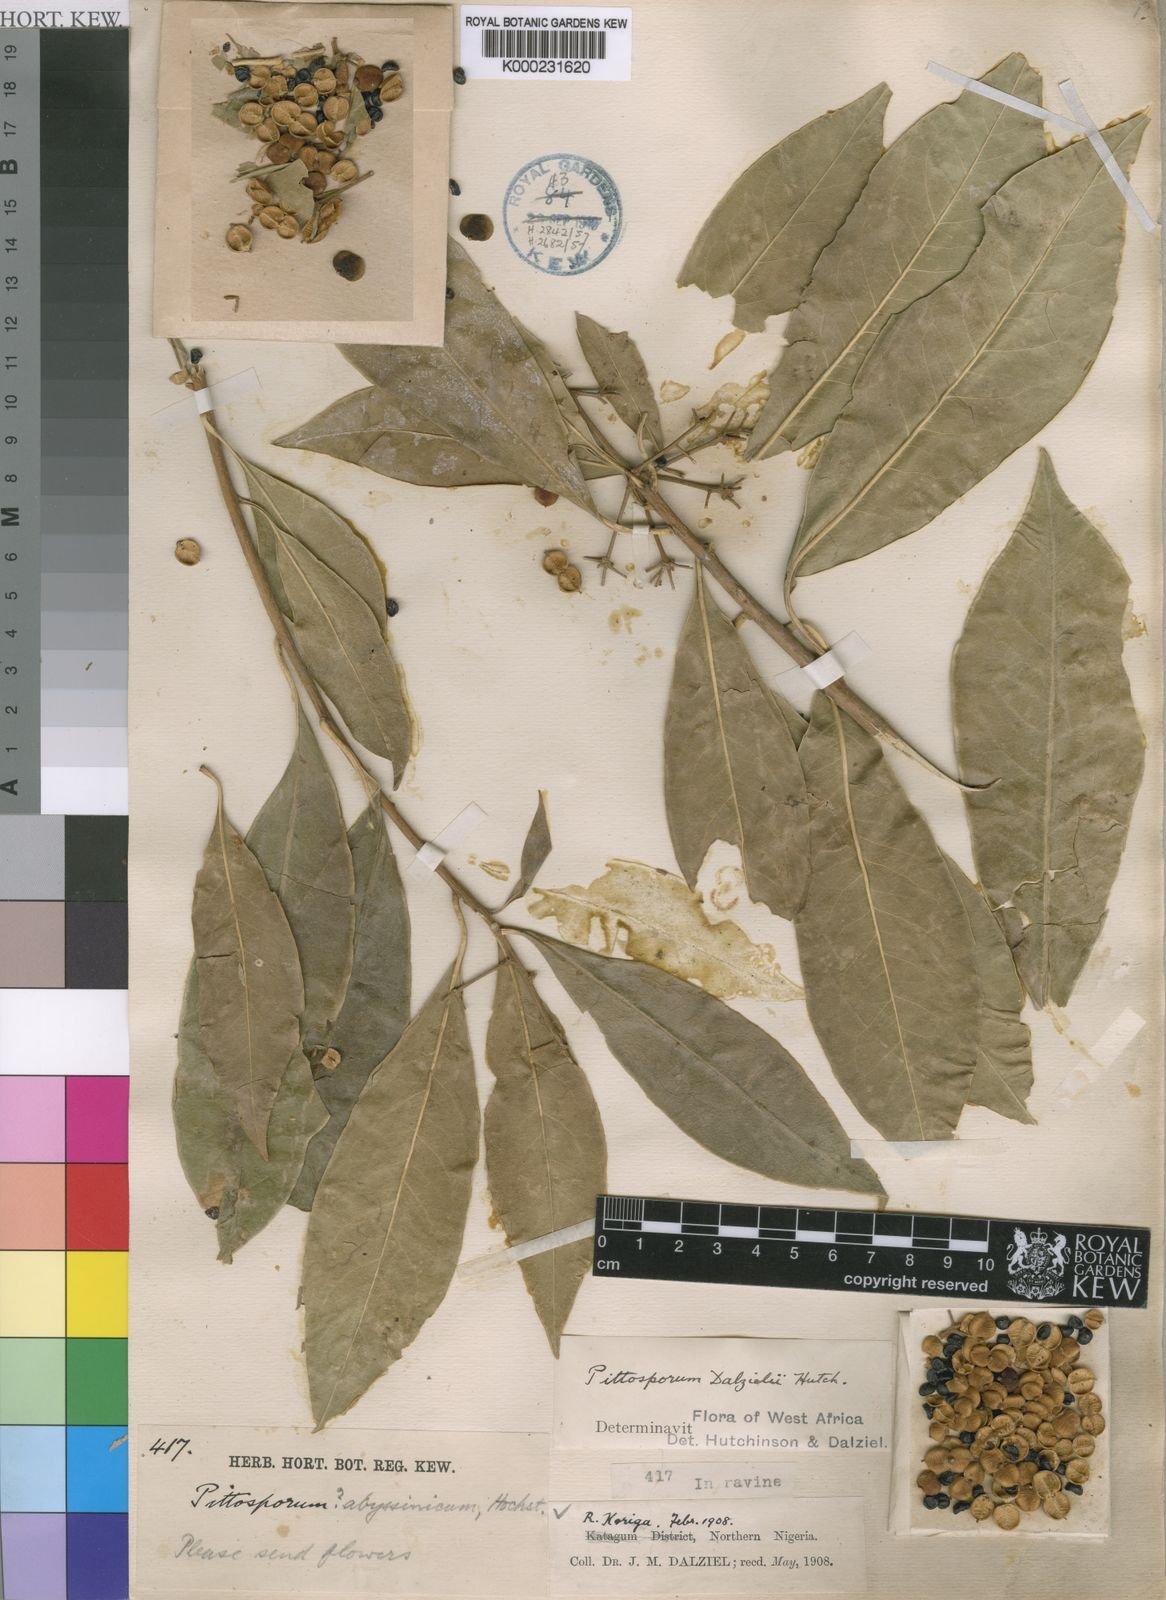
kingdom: Plantae
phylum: Tracheophyta
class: Magnoliopsida
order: Apiales
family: Pittosporaceae
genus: Pittosporum
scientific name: Pittosporum viridiflorum
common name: Cape cheesewood
